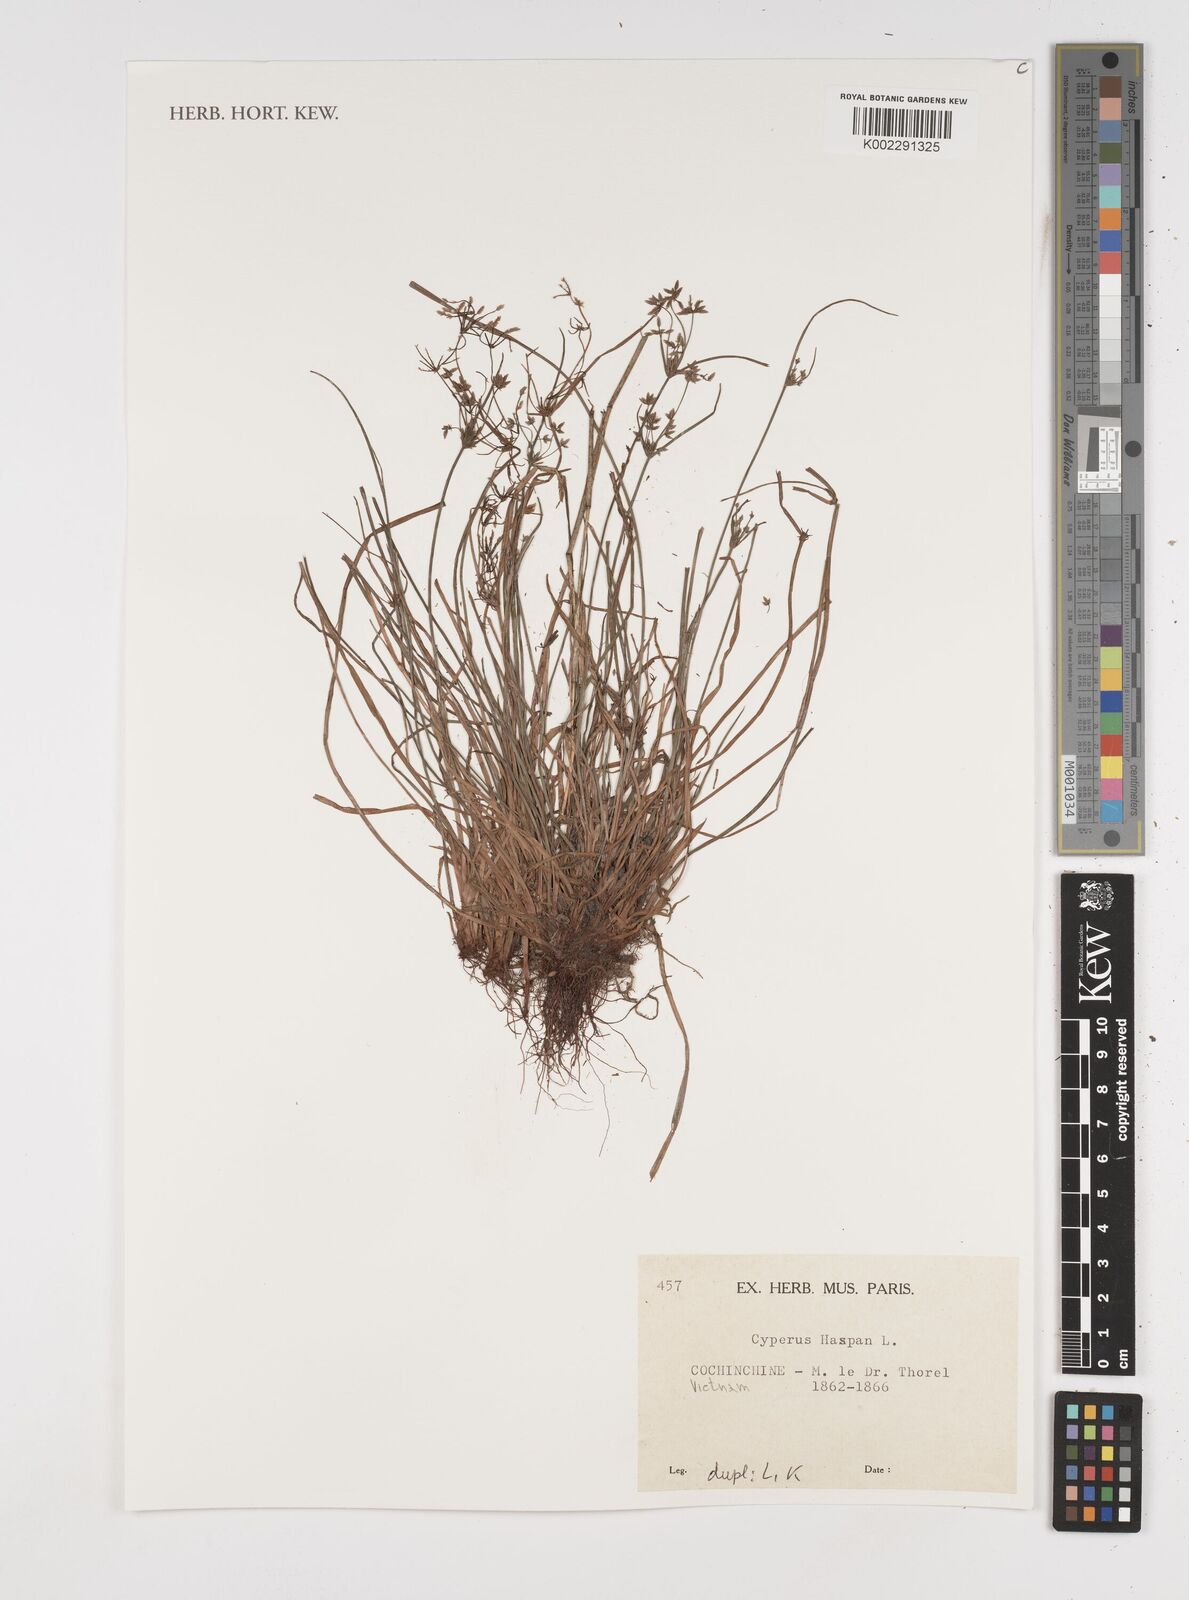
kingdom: Plantae
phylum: Tracheophyta
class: Liliopsida
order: Poales
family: Cyperaceae
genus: Cyperus
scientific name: Cyperus haspan
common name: Haspan flatsedge
